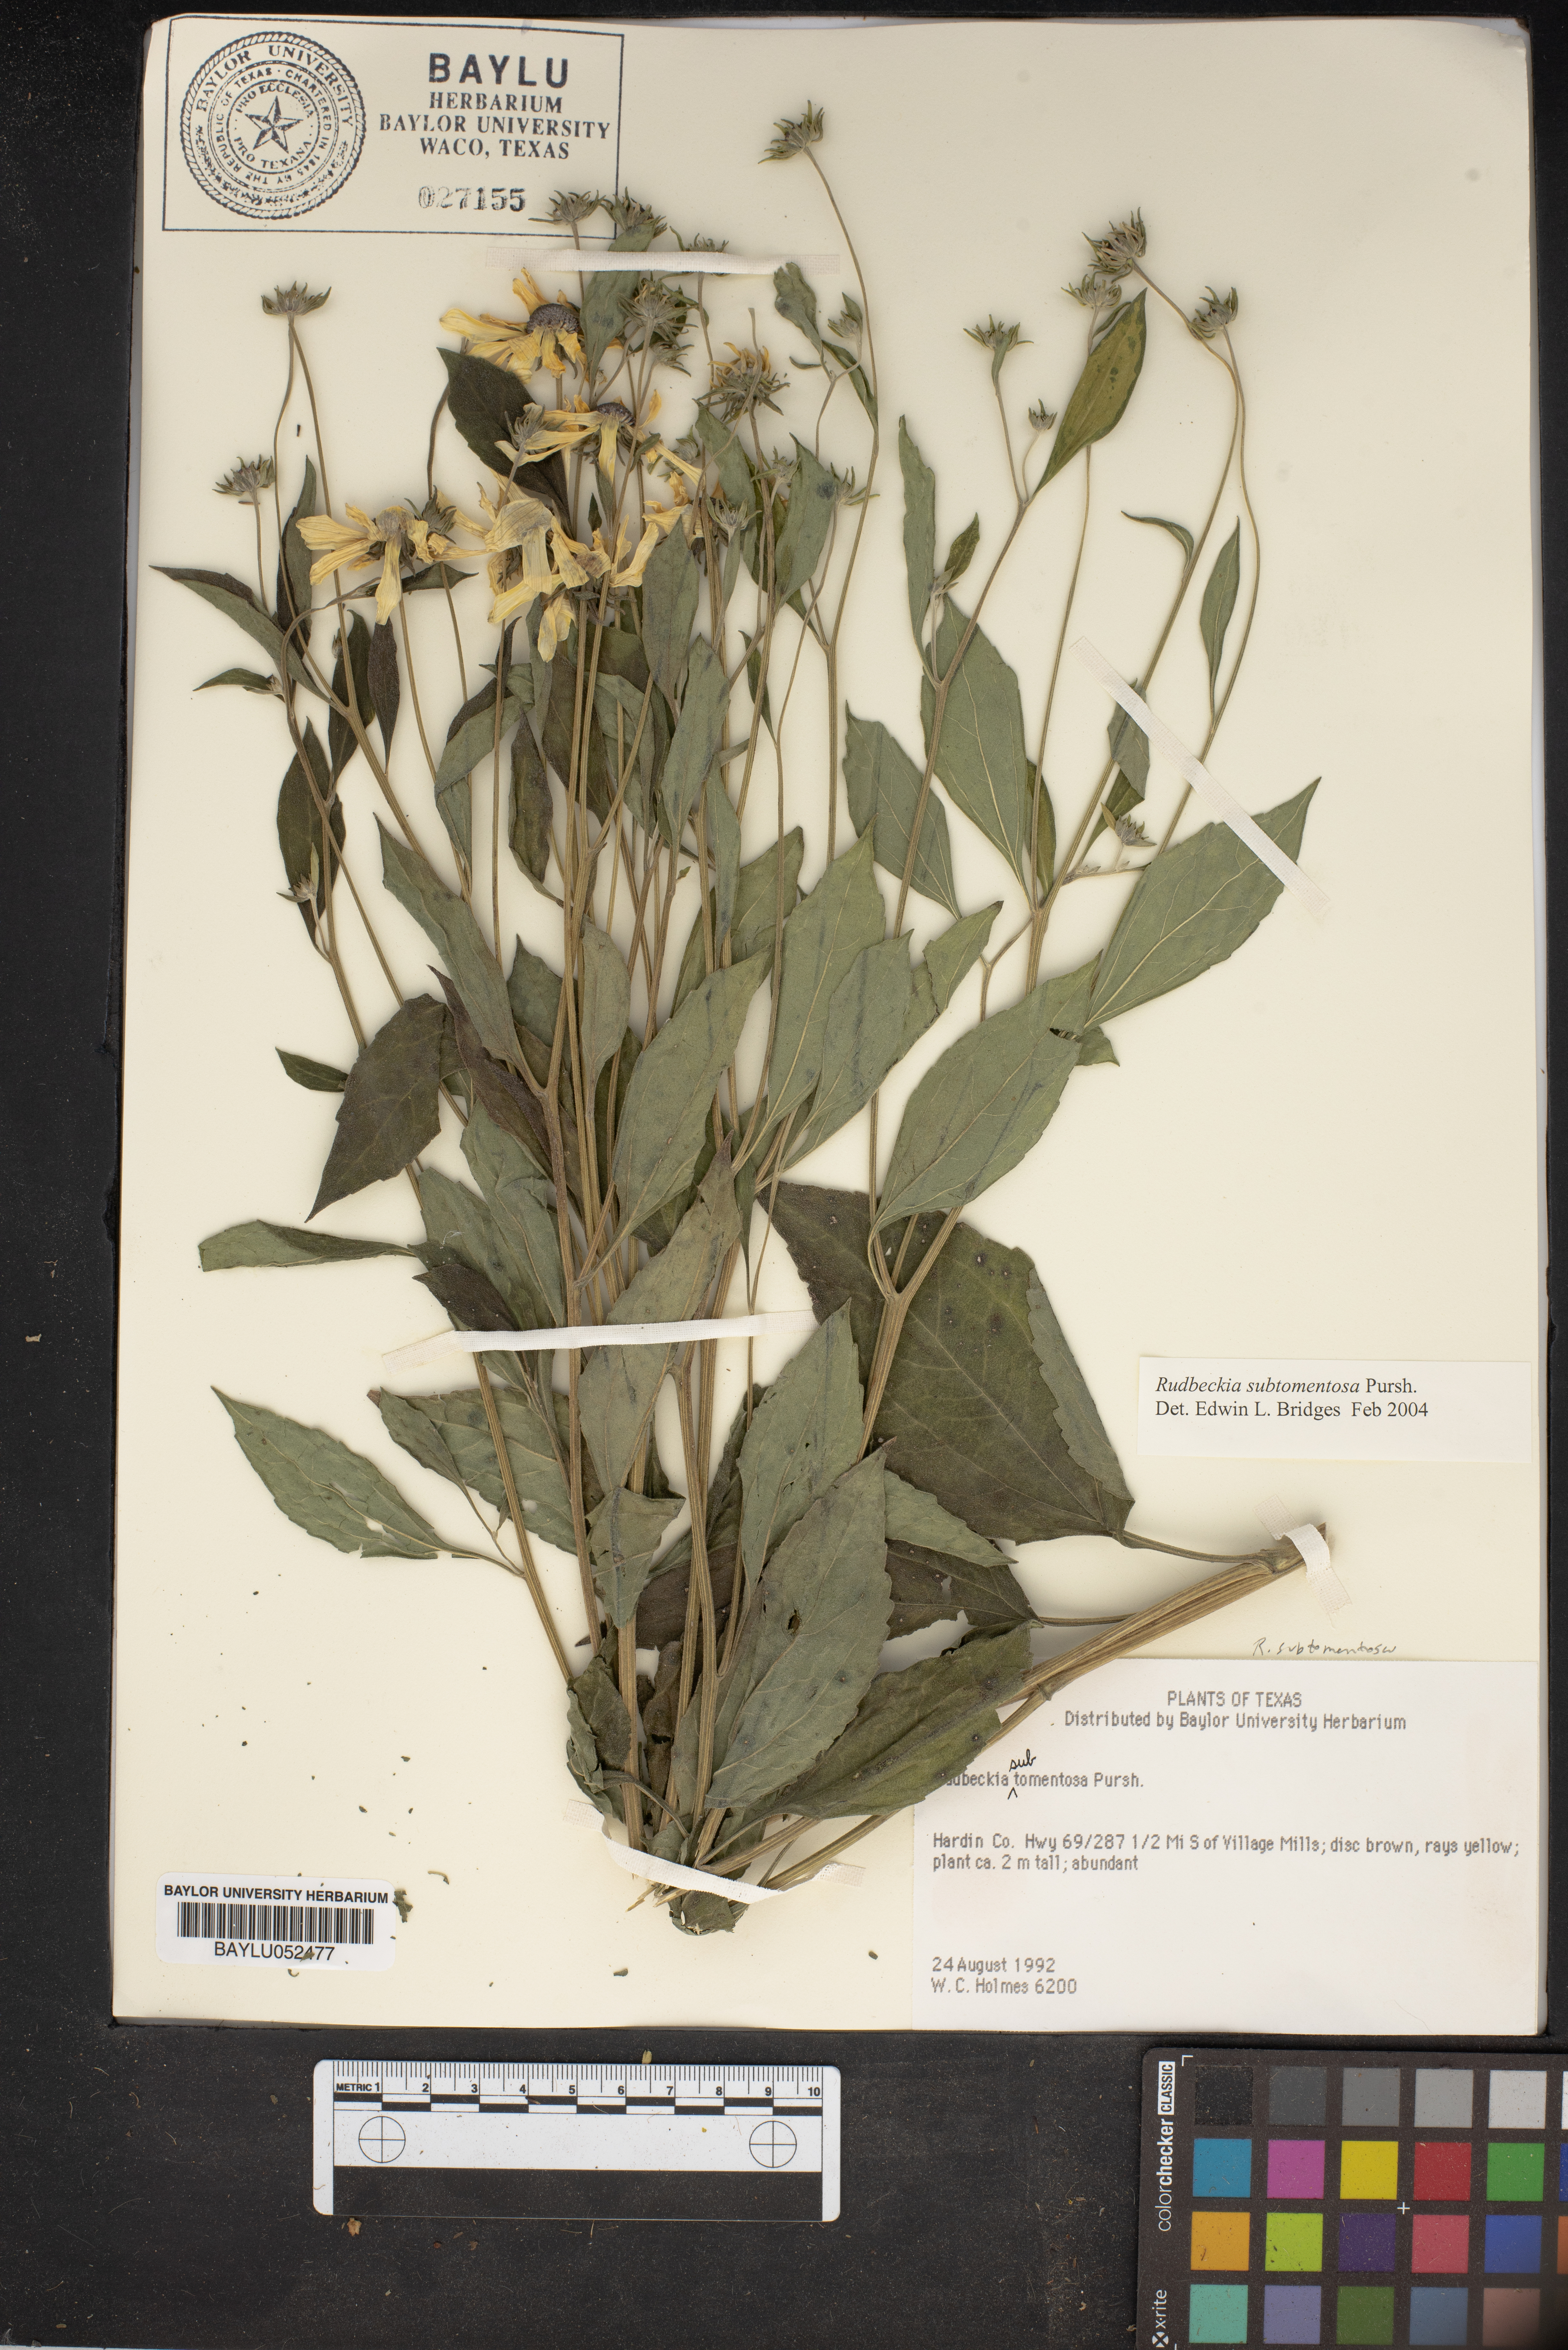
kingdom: Plantae
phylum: Tracheophyta
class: Magnoliopsida
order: Asterales
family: Asteraceae
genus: Rudbeckia
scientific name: Rudbeckia subtomentosa
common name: Sweet coneflower
